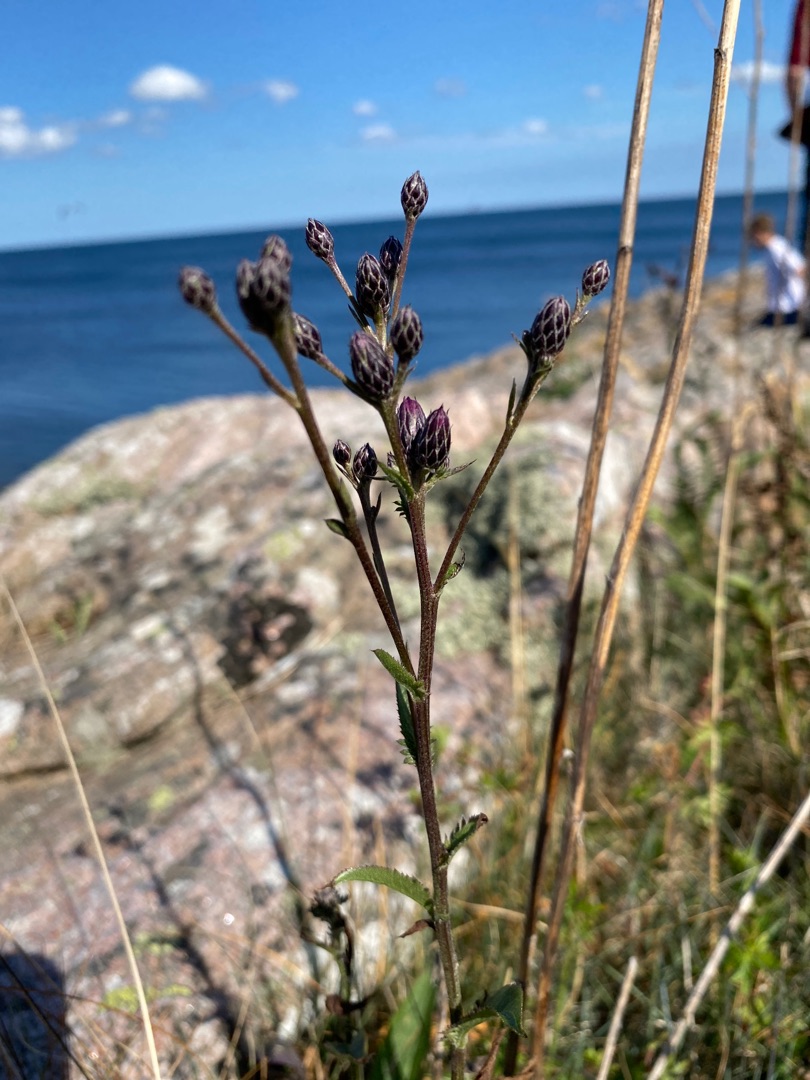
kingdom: Plantae
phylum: Tracheophyta
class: Magnoliopsida
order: Asterales
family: Asteraceae
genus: Serratula
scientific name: Serratula tinctoria
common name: Eng-skær
